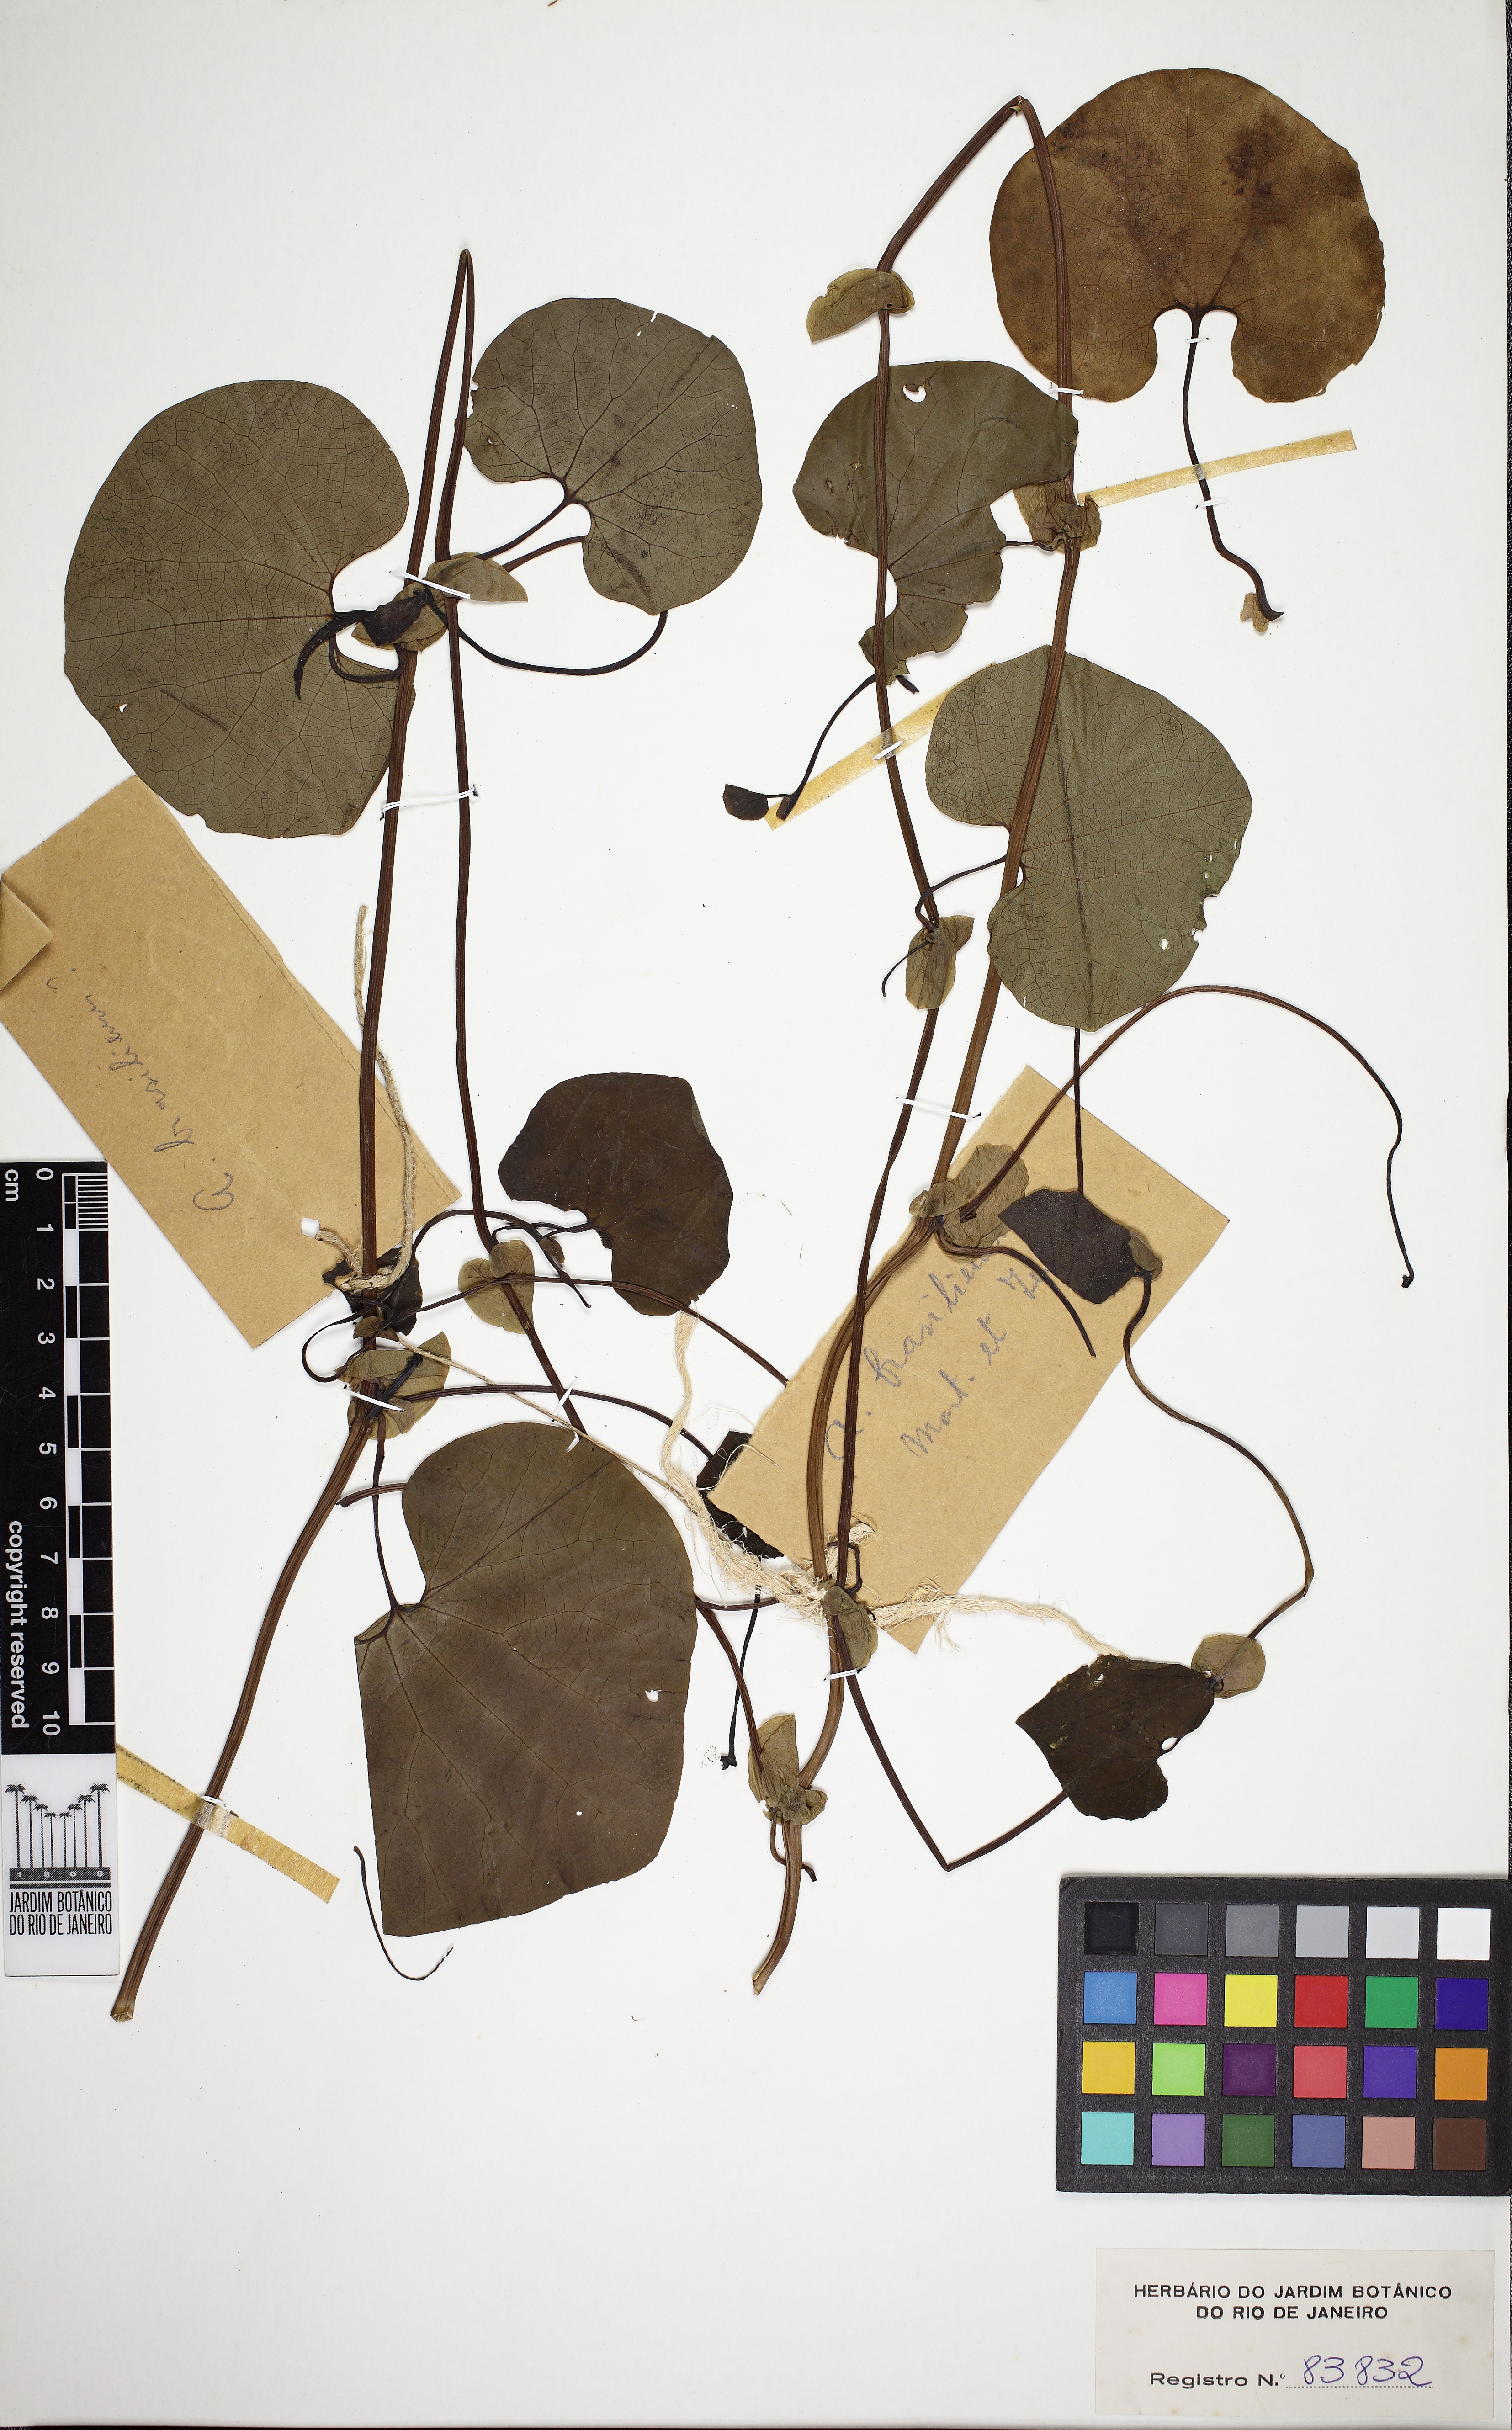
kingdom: Plantae
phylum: Tracheophyta
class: Magnoliopsida
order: Piperales
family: Aristolochiaceae
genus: Aristolochia
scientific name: Aristolochia labiata
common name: Mottled dutchman's pipe
